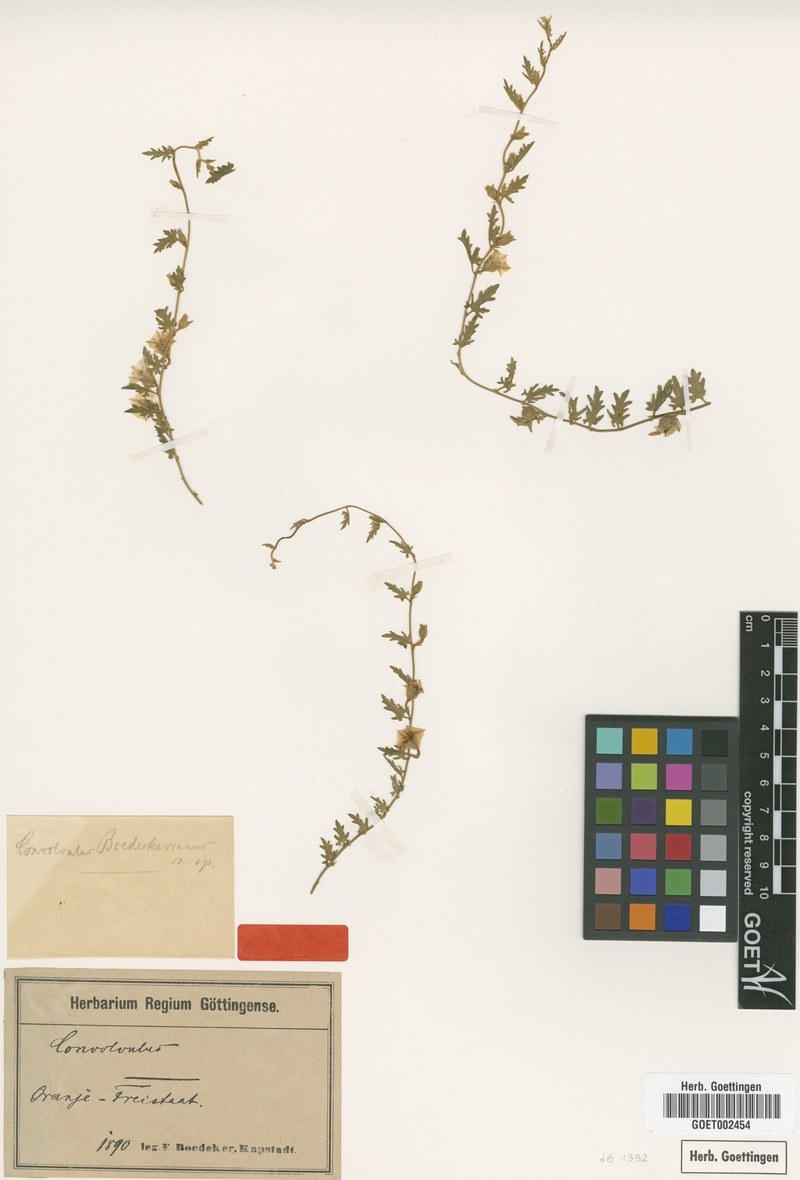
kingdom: Plantae
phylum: Tracheophyta
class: Magnoliopsida
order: Solanales
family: Convolvulaceae
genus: Convolvulus
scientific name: Convolvulus boedeckerianus
